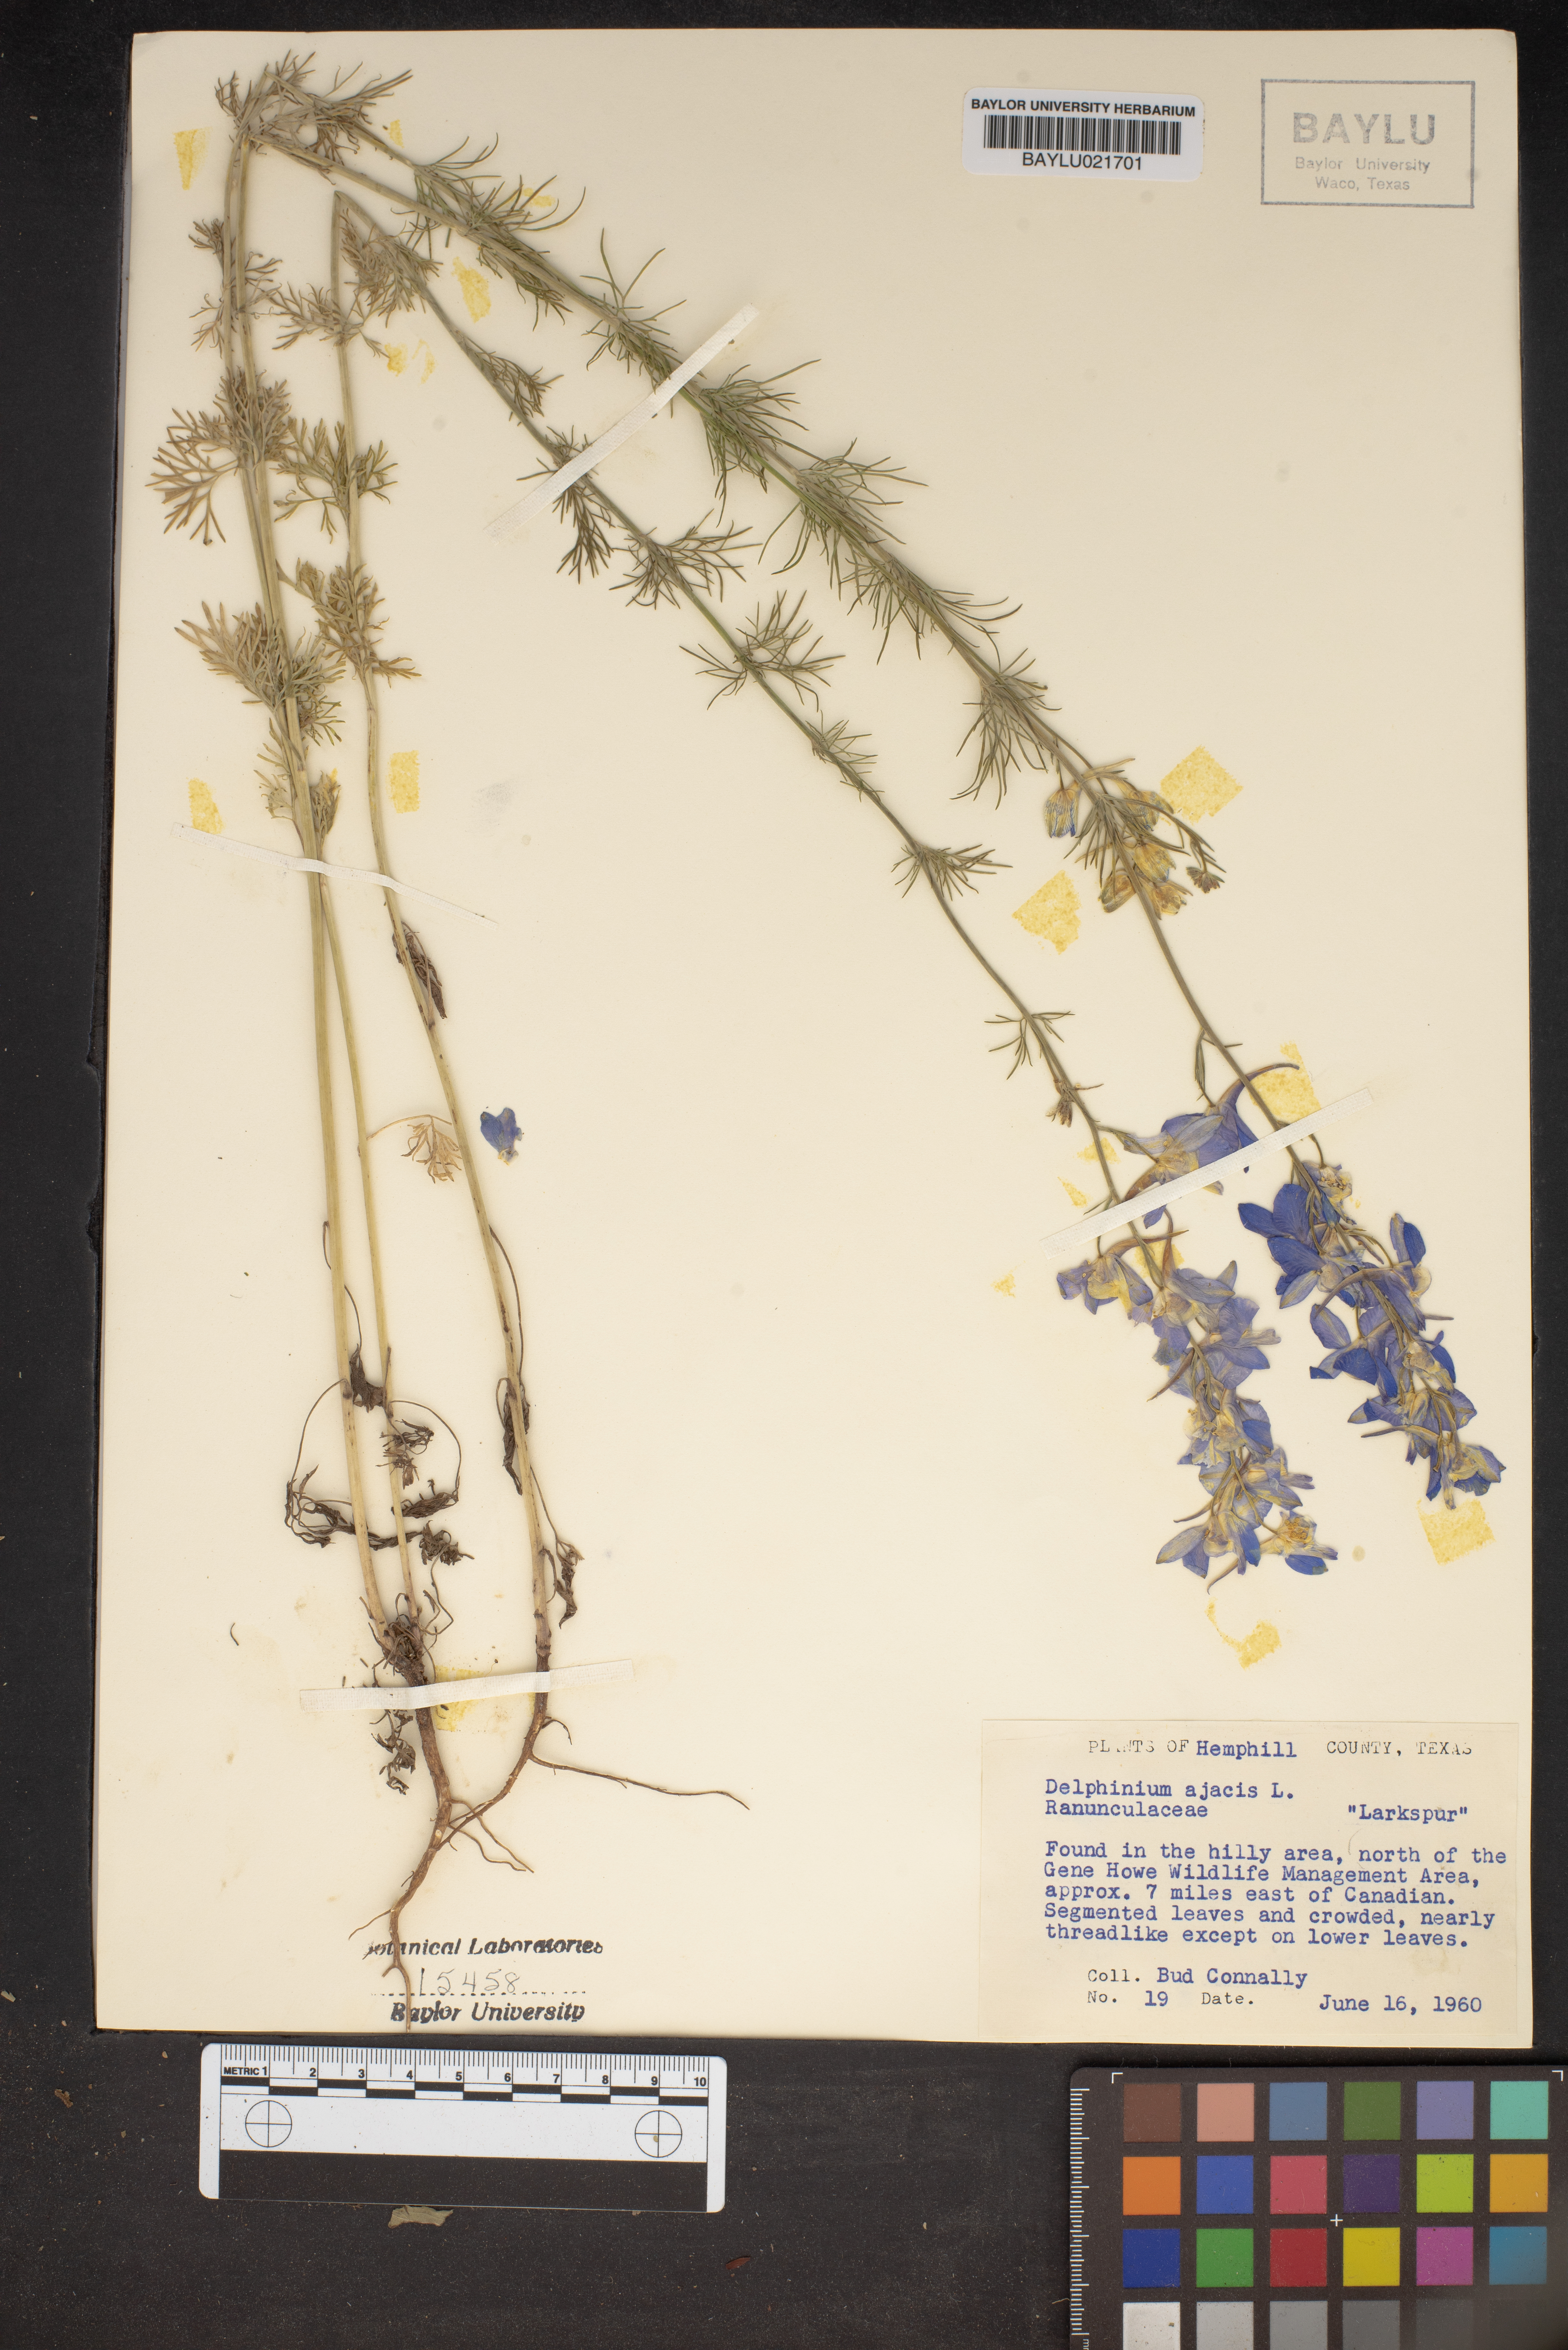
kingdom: Plantae
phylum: Tracheophyta
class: Magnoliopsida
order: Ranunculales
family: Ranunculaceae
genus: Delphinium
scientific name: Delphinium ajacis
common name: Doubtful knight's-spur
